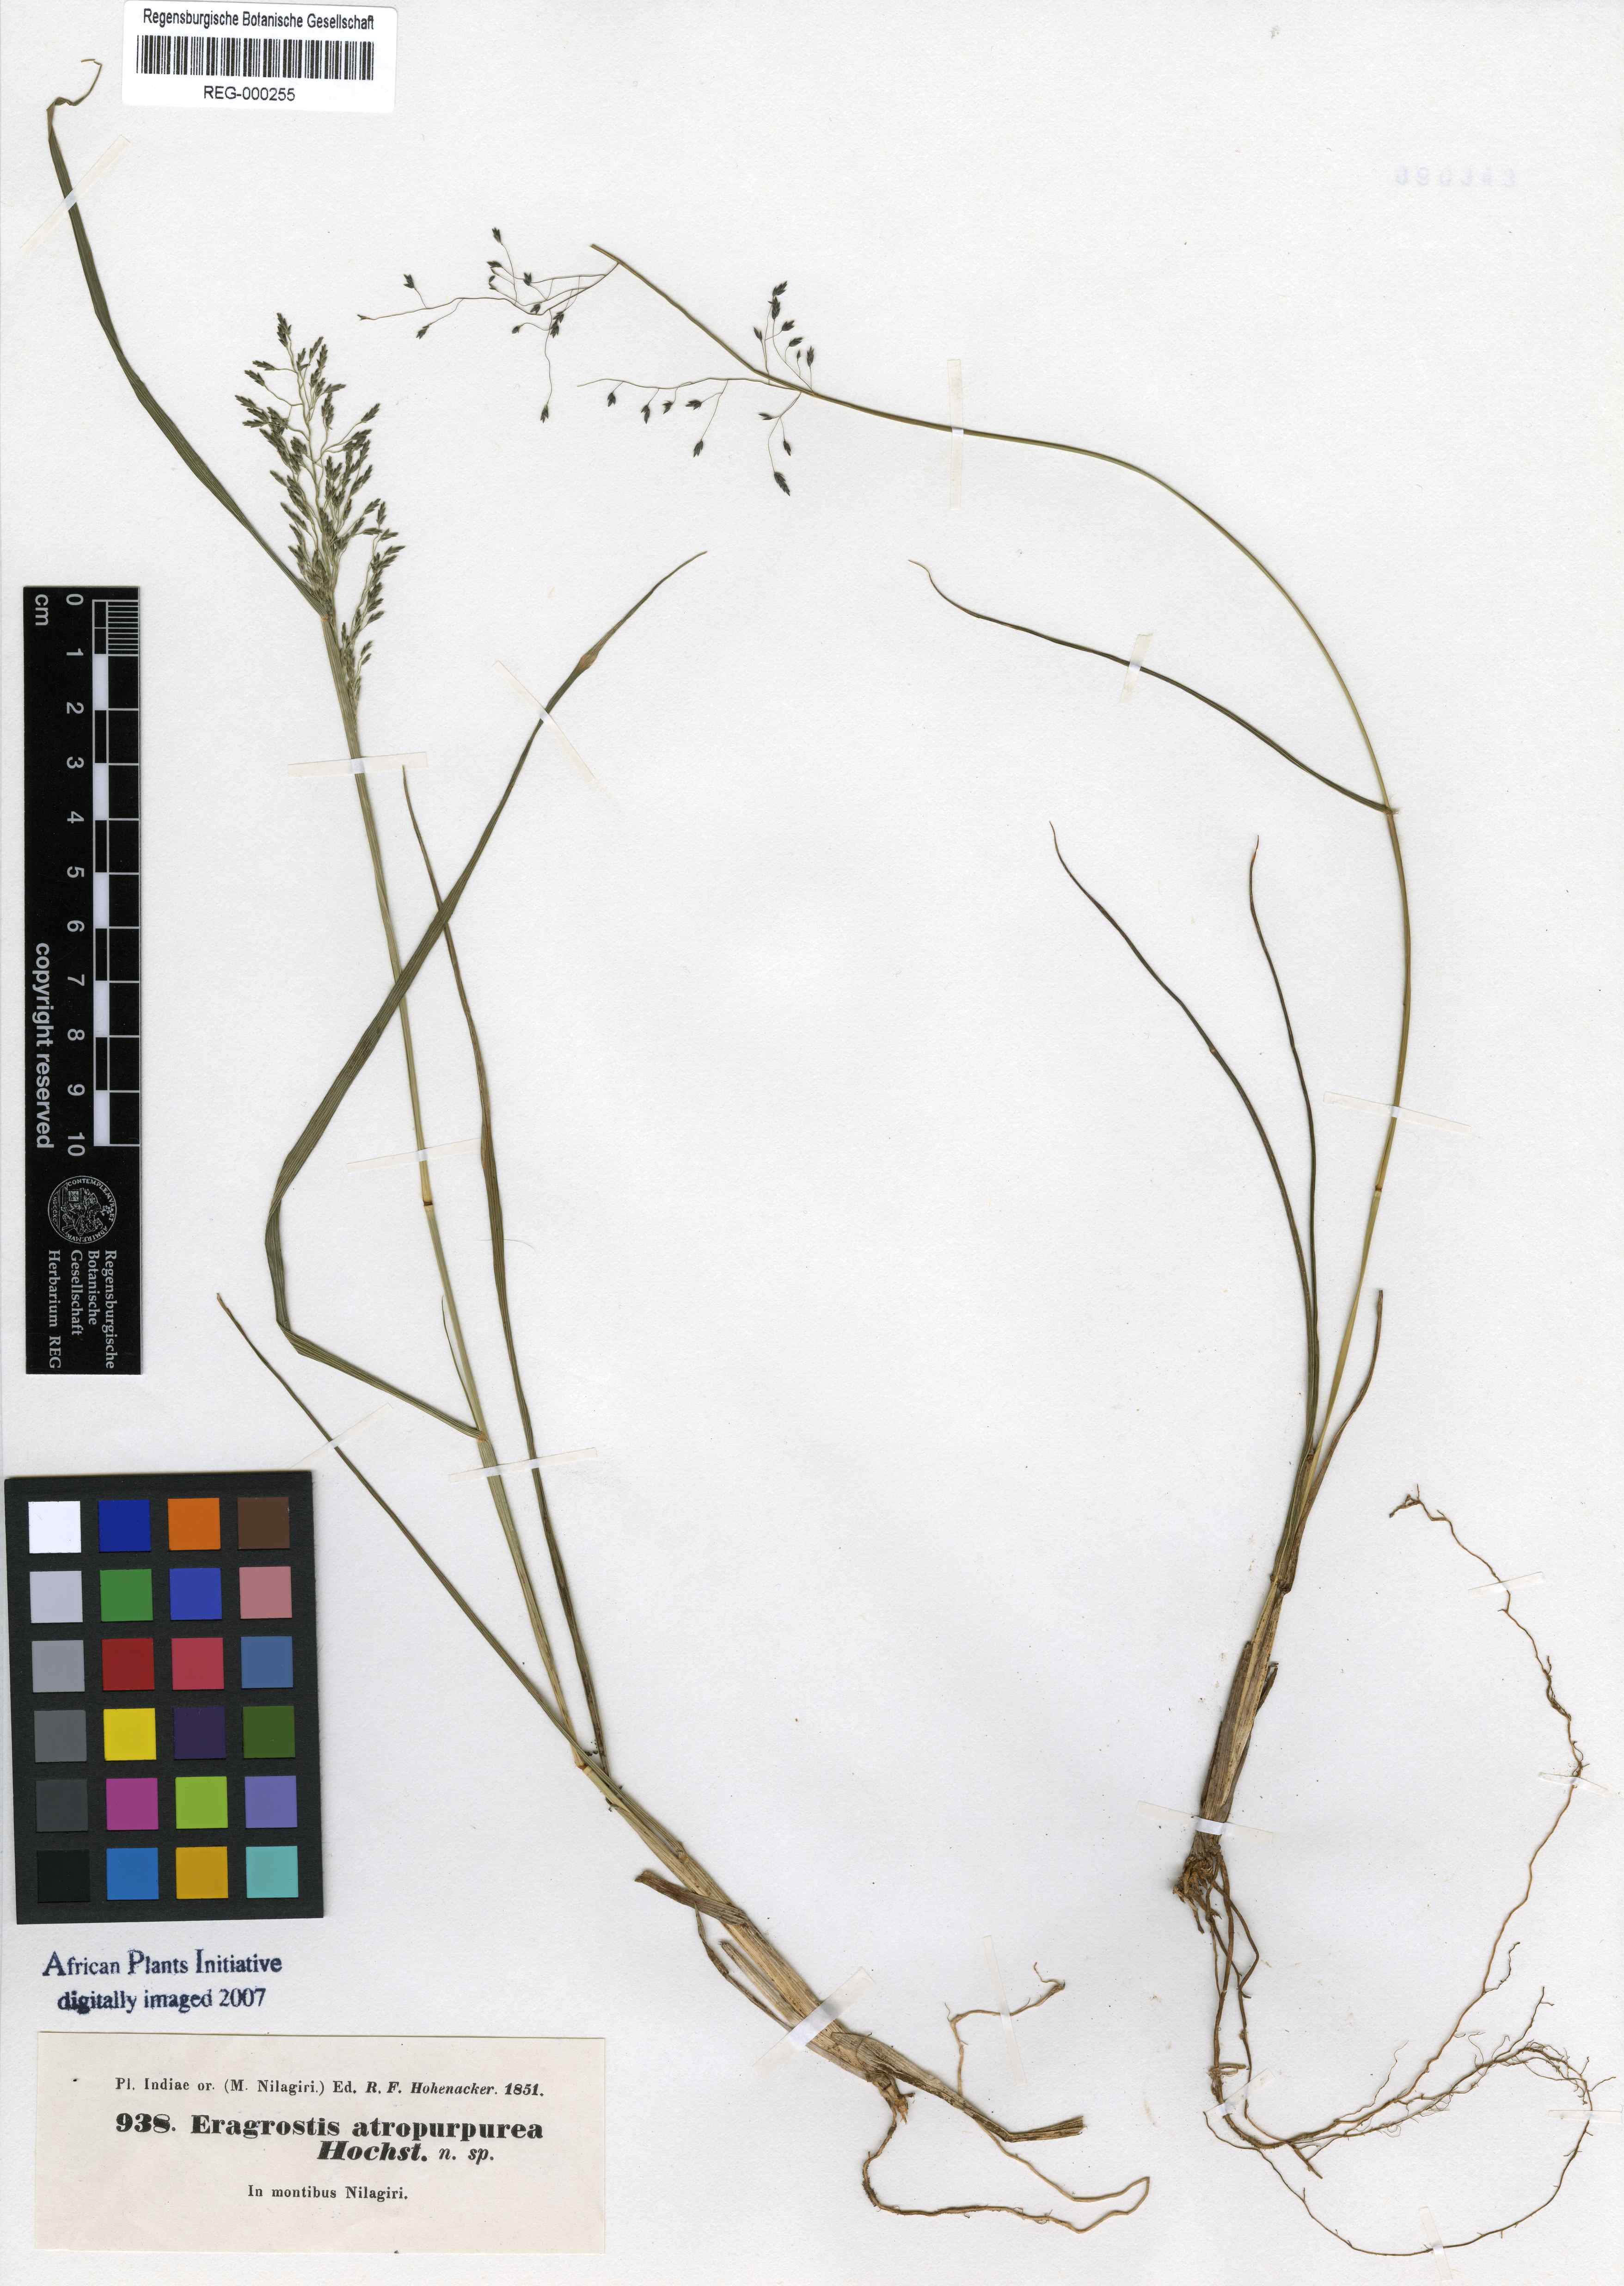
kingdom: Plantae
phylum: Tracheophyta
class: Liliopsida
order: Poales
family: Poaceae
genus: Eragrostis
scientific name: Eragrostis nigra
